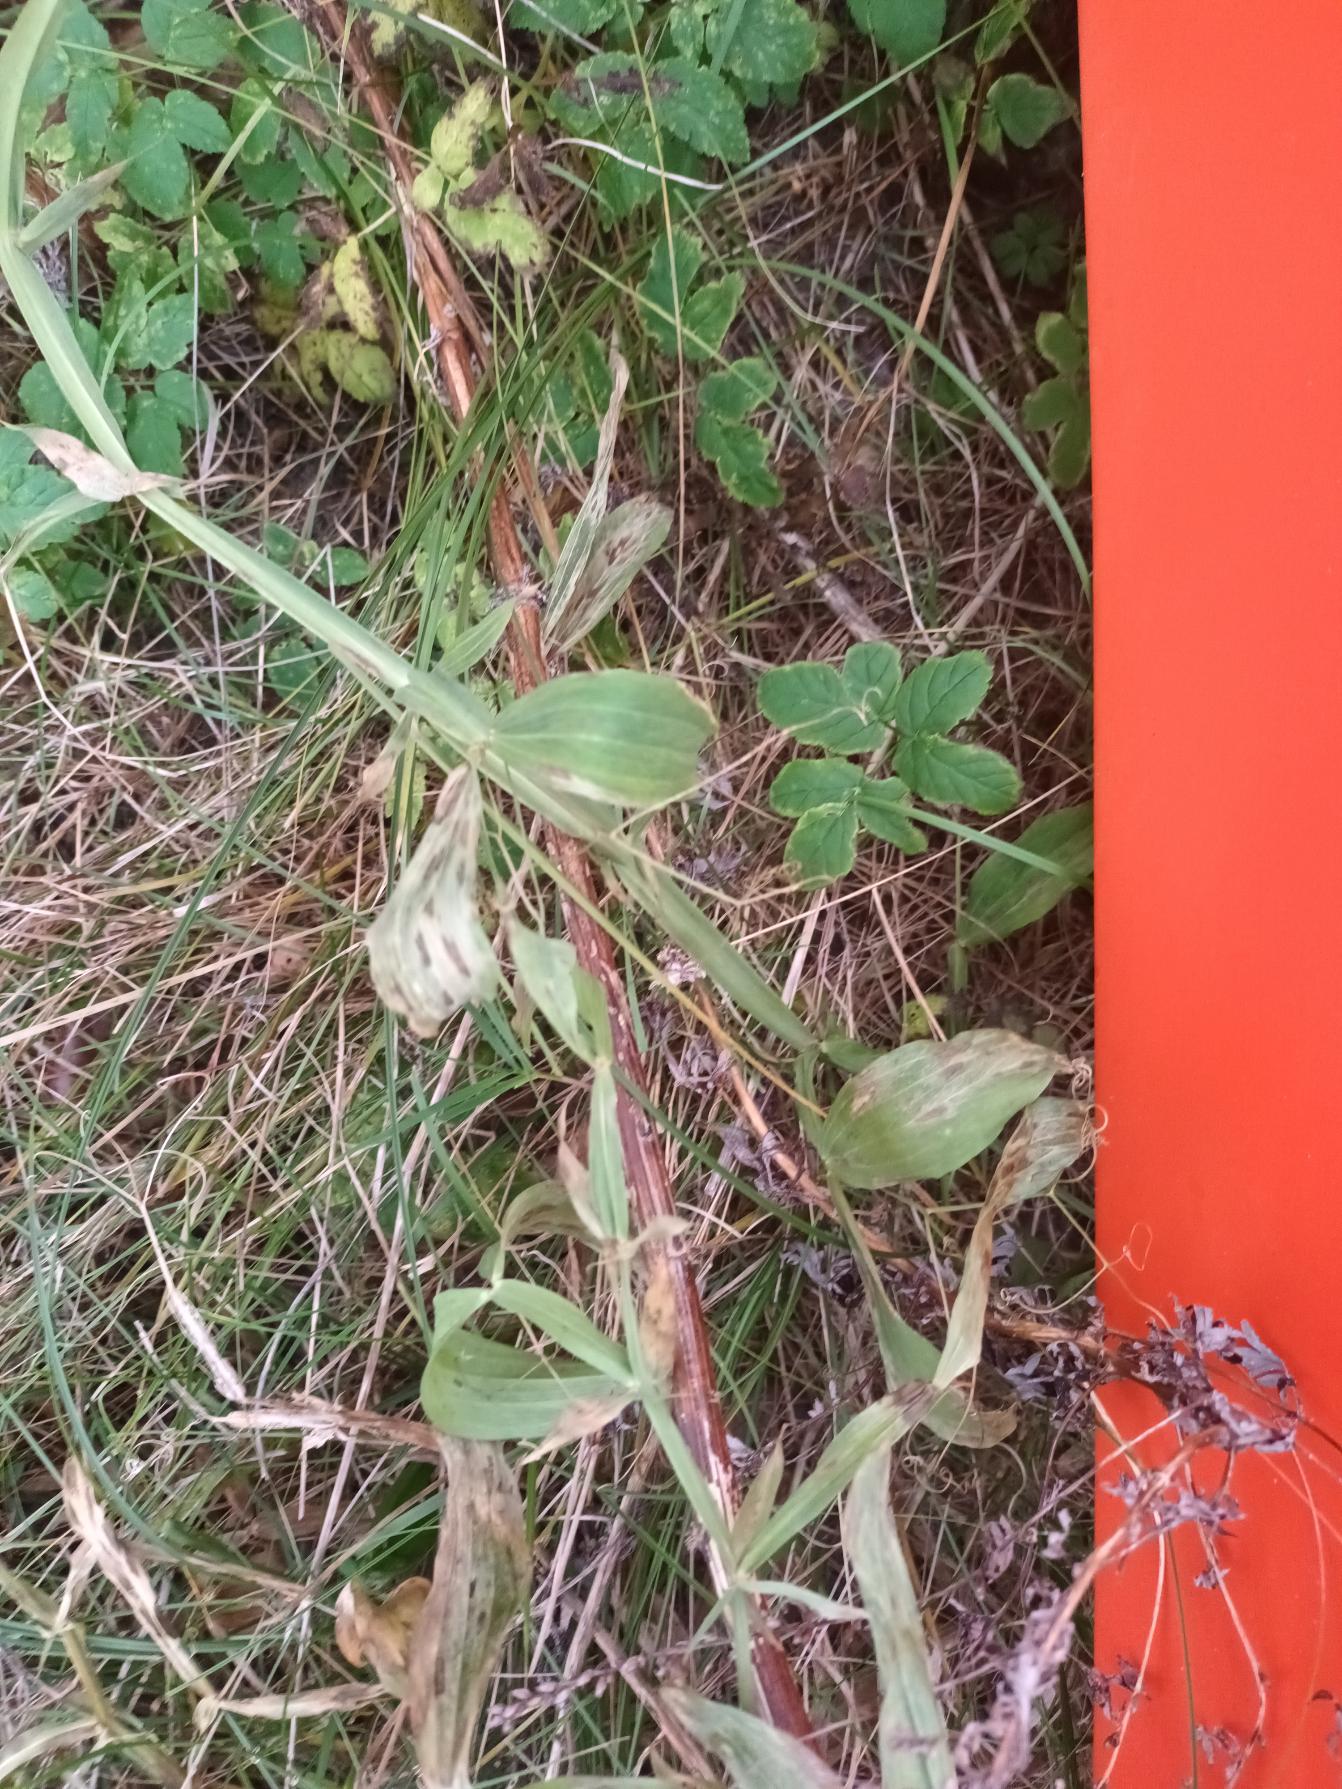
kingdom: Plantae
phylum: Tracheophyta
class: Magnoliopsida
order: Fabales
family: Fabaceae
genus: Lathyrus
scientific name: Lathyrus latifolius
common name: Flerårig ærteblomst
